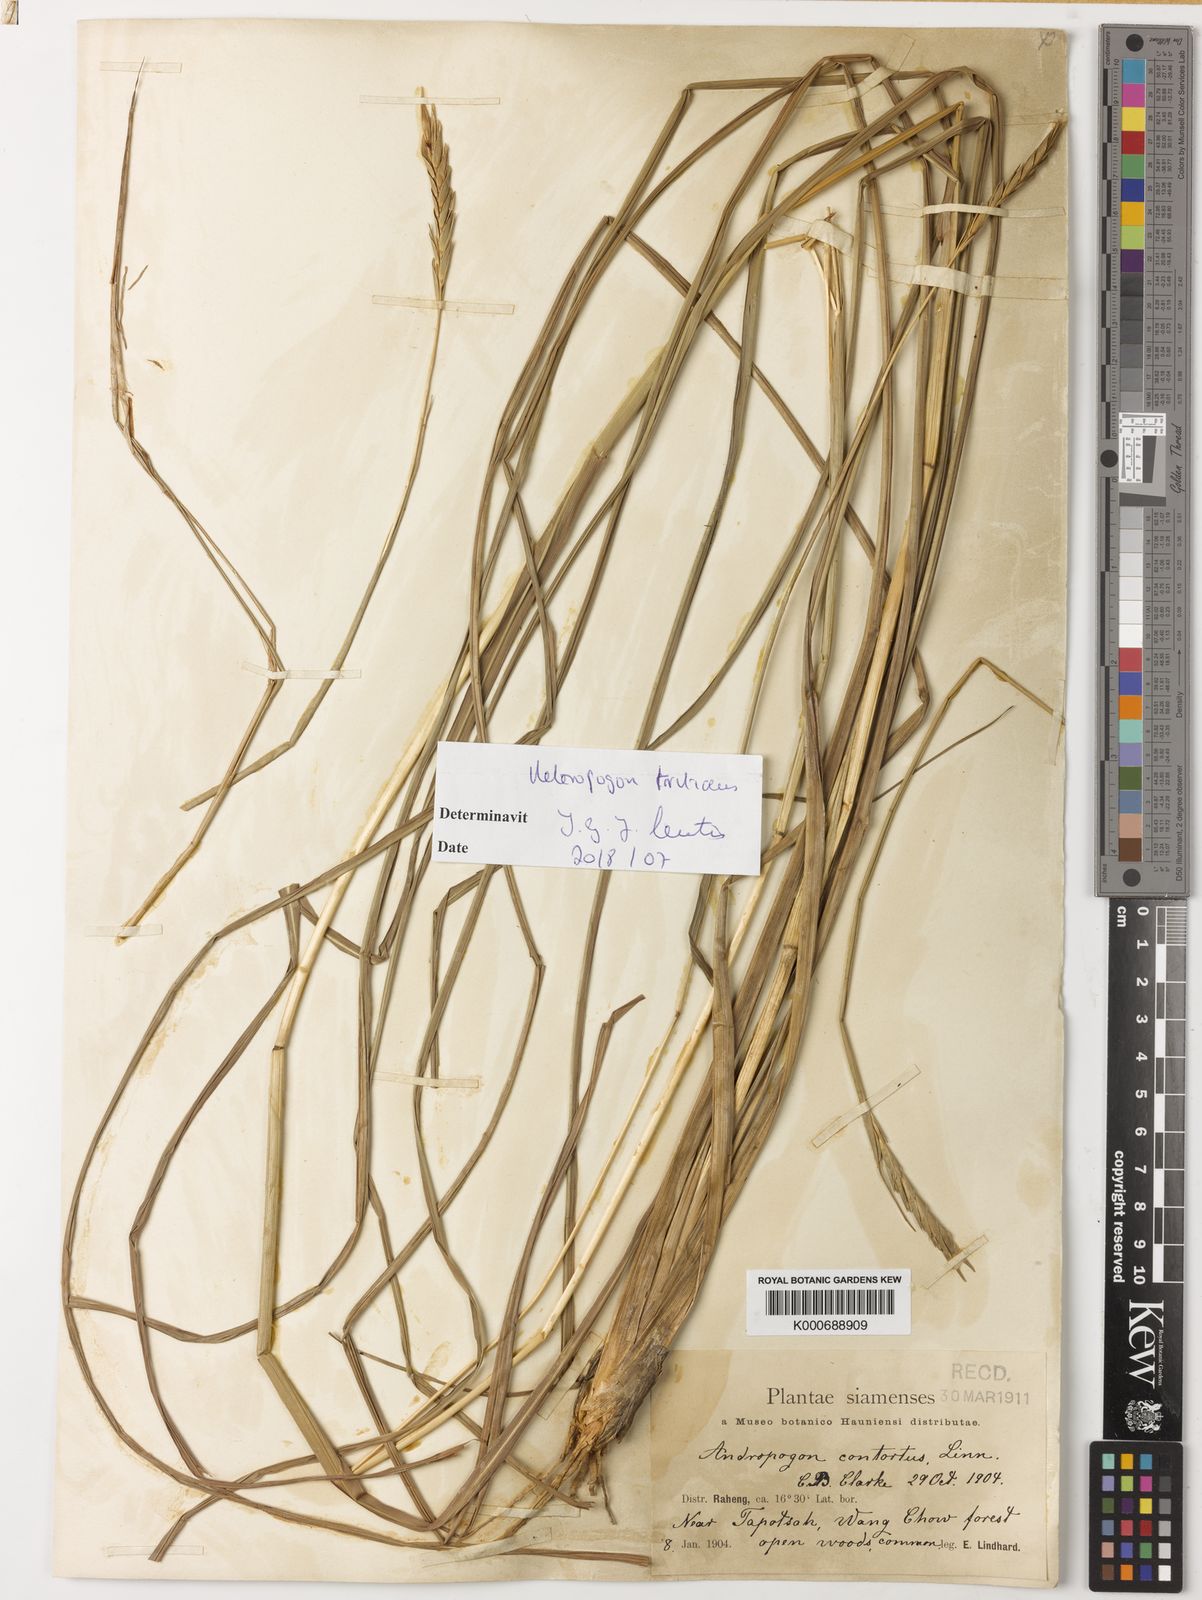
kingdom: Plantae
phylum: Tracheophyta
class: Liliopsida
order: Poales
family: Poaceae
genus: Heteropogon
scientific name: Heteropogon triticeus
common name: Sugar grass
